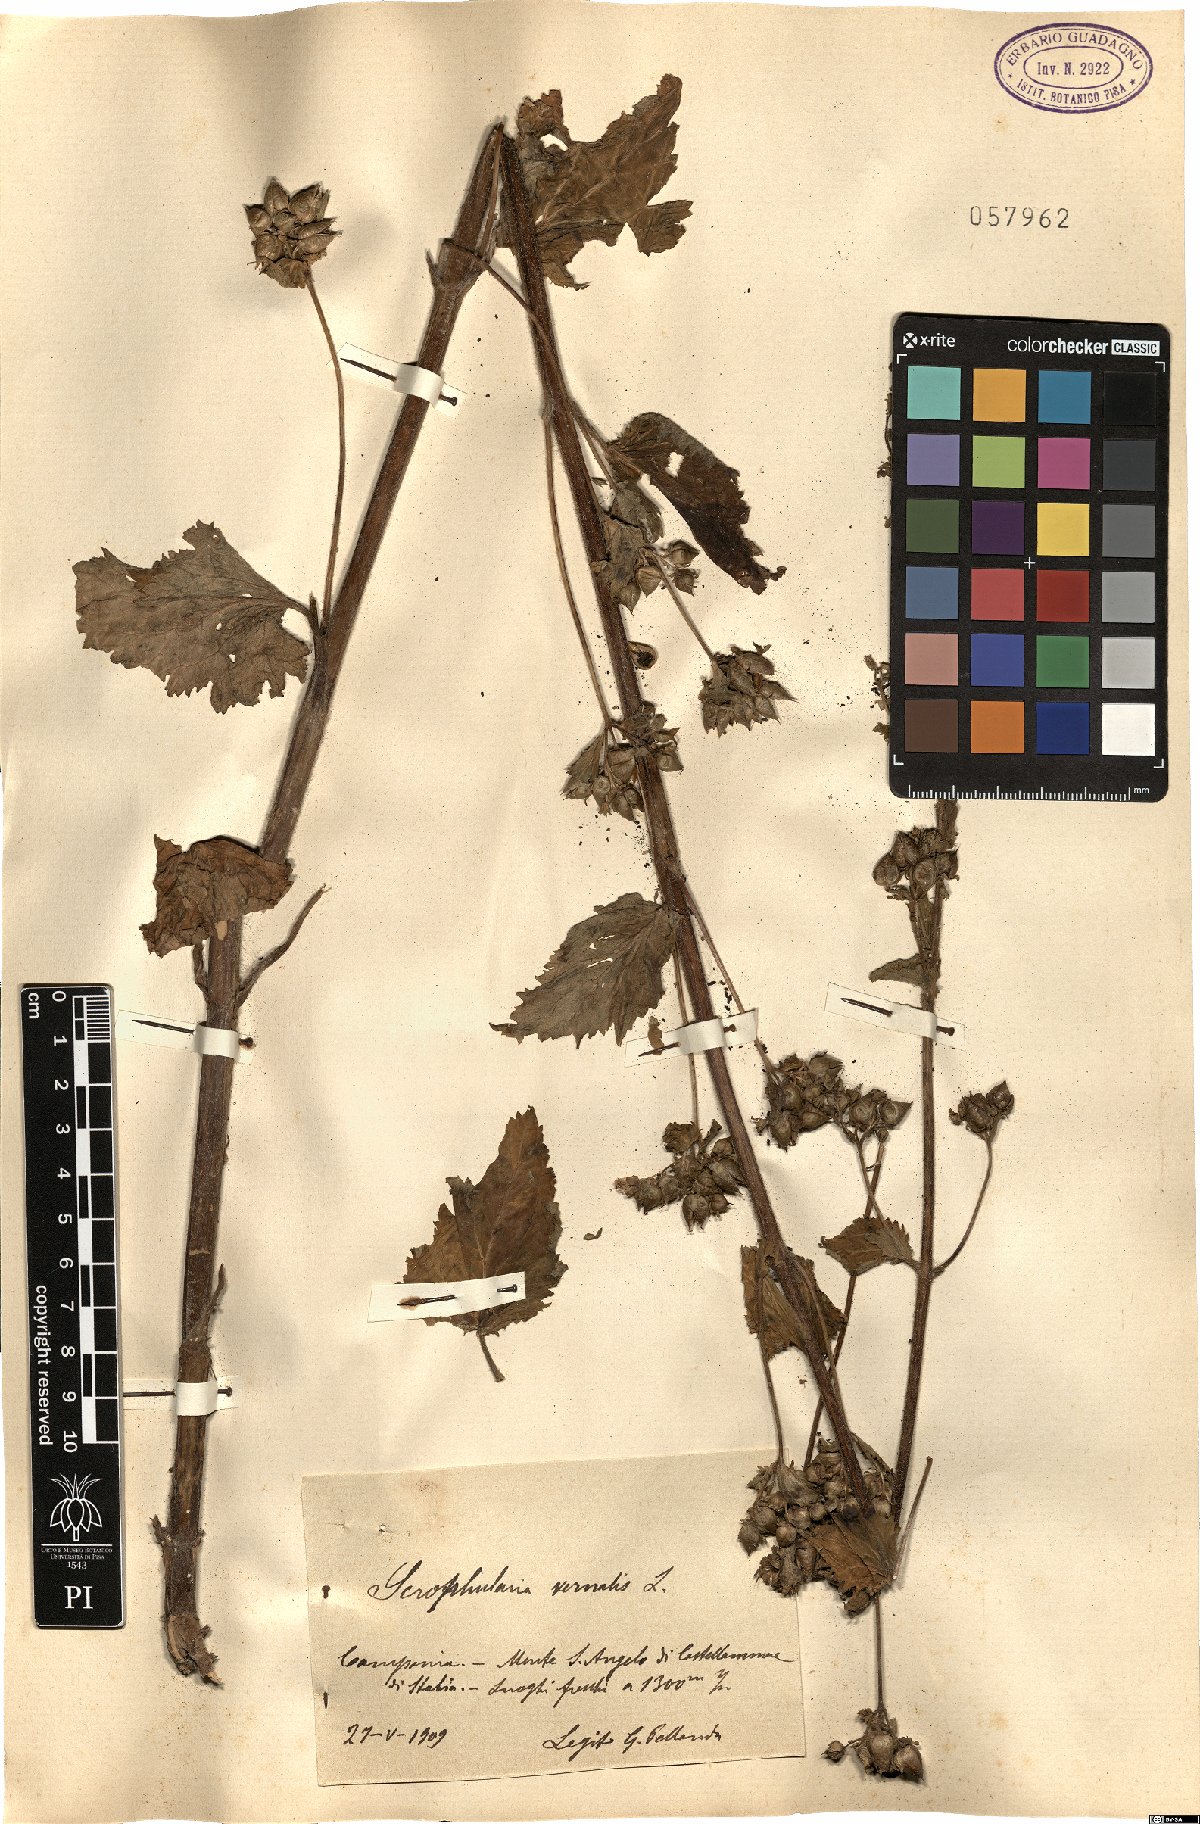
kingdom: Plantae
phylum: Tracheophyta
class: Magnoliopsida
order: Lamiales
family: Scrophulariaceae
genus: Scrophularia
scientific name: Scrophularia vernalis
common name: Yellow figwort
